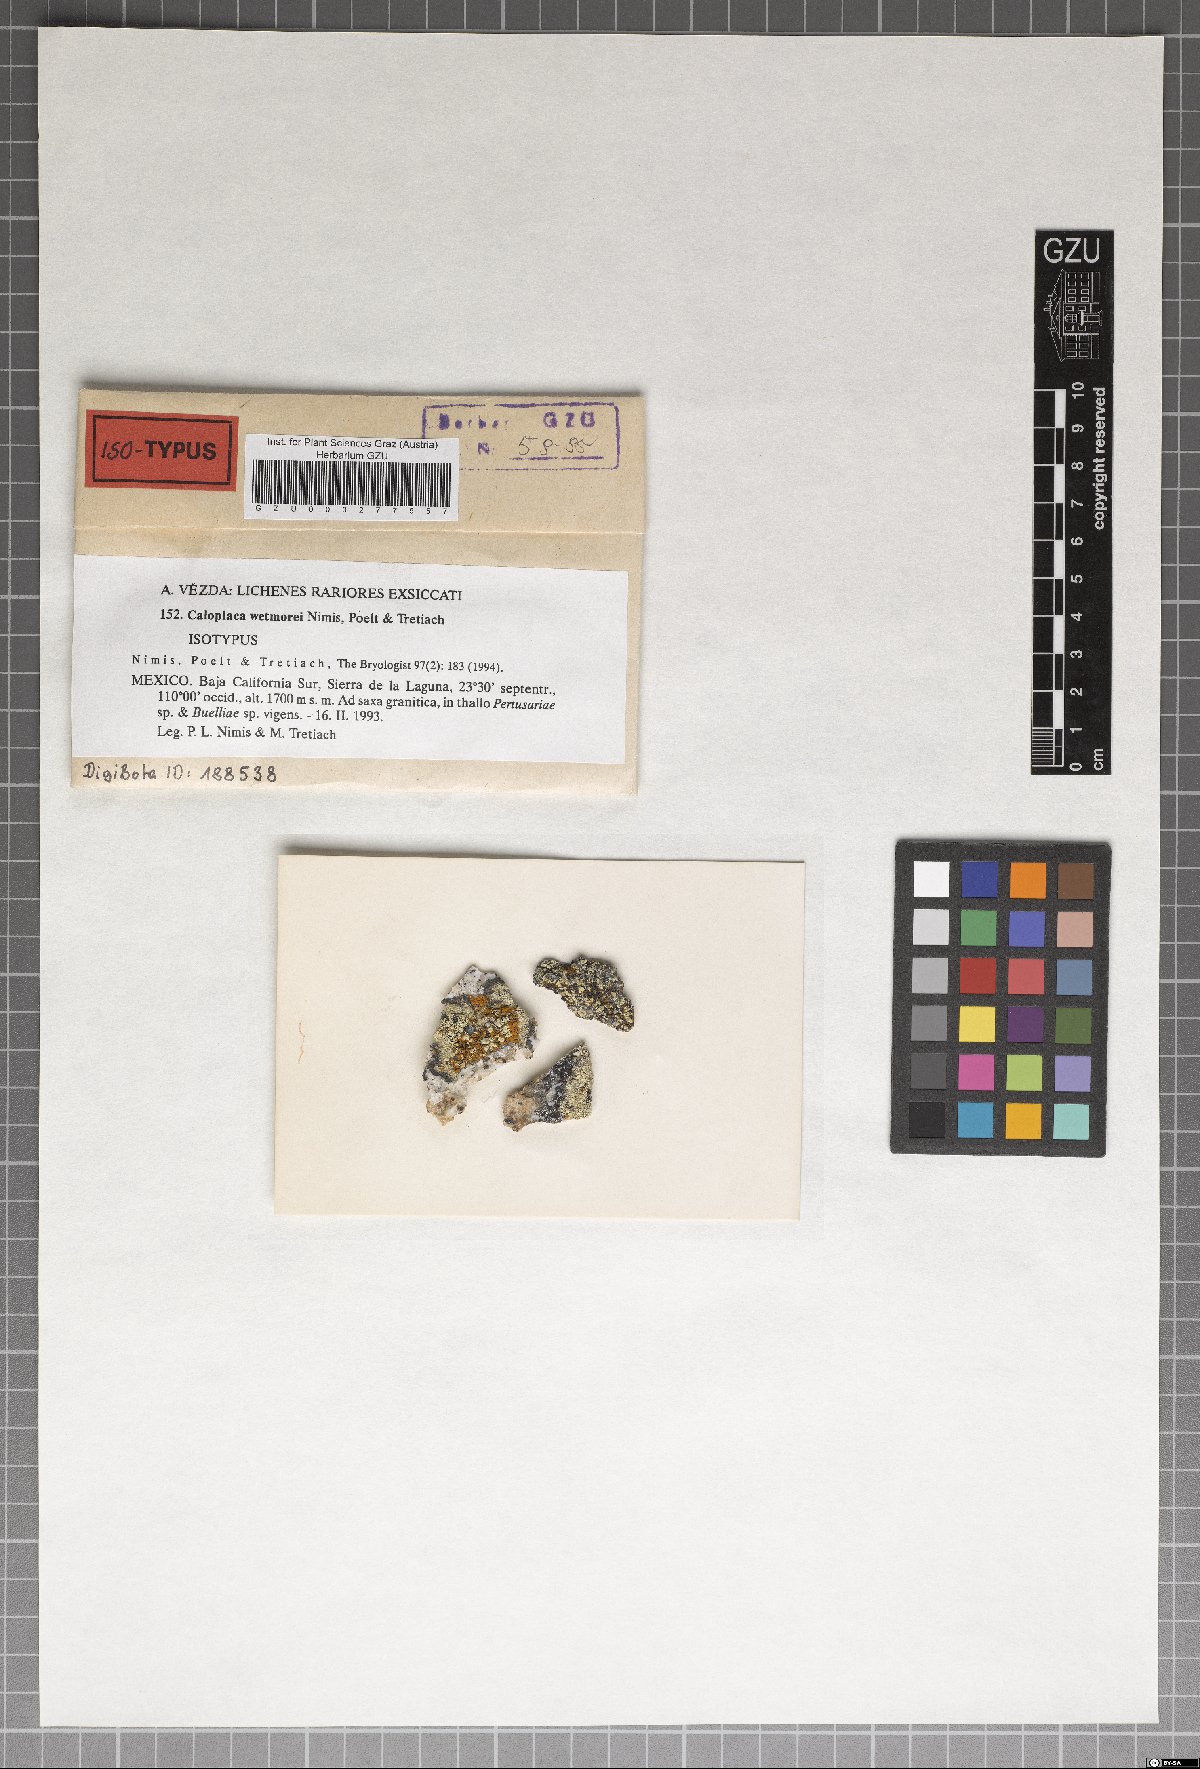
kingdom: Fungi
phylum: Ascomycota
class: Lecanoromycetes
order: Teloschistales
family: Teloschistaceae
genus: Tassiloa
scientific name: Tassiloa wetmorei
